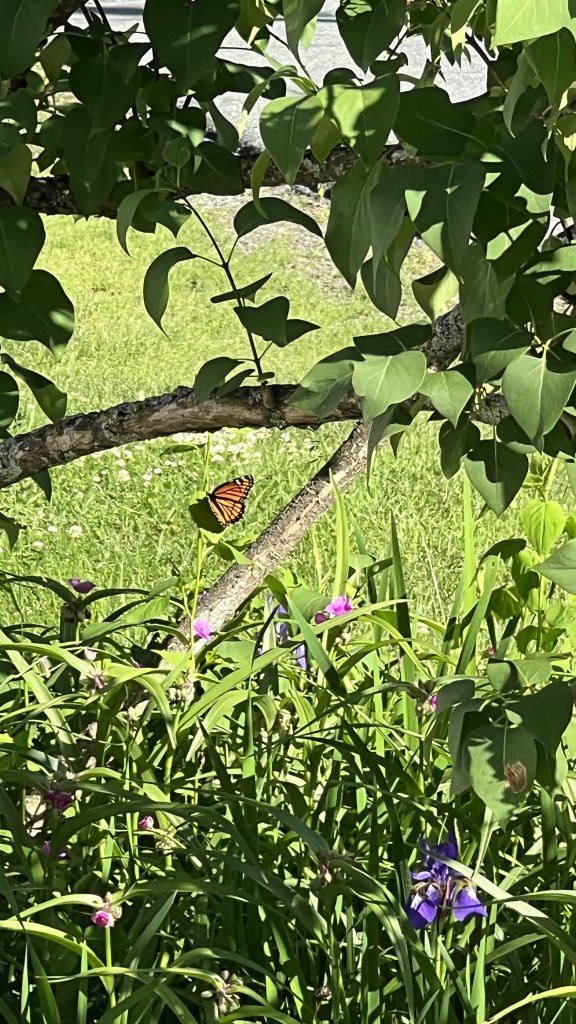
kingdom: Animalia
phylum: Arthropoda
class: Insecta
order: Lepidoptera
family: Nymphalidae
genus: Limenitis
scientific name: Limenitis archippus
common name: Viceroy
